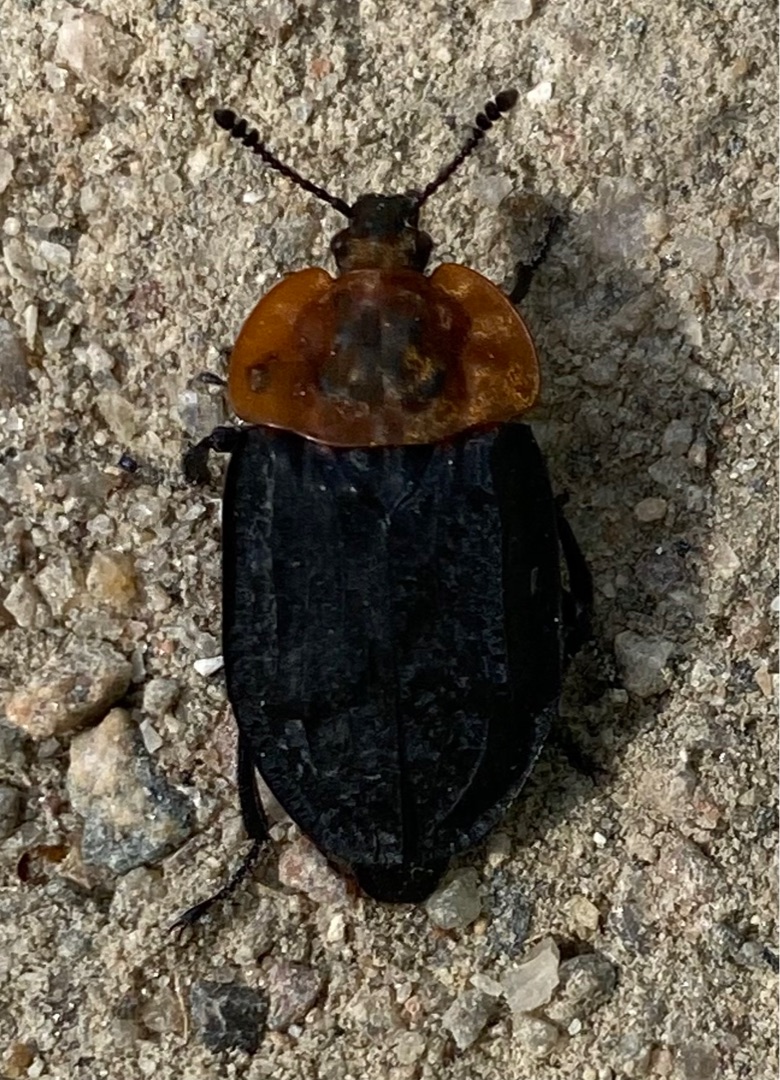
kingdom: Animalia
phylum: Arthropoda
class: Insecta
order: Coleoptera
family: Staphylinidae
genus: Oiceoptoma
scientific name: Oiceoptoma thoracicum
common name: Rødbrystet ådselbille
